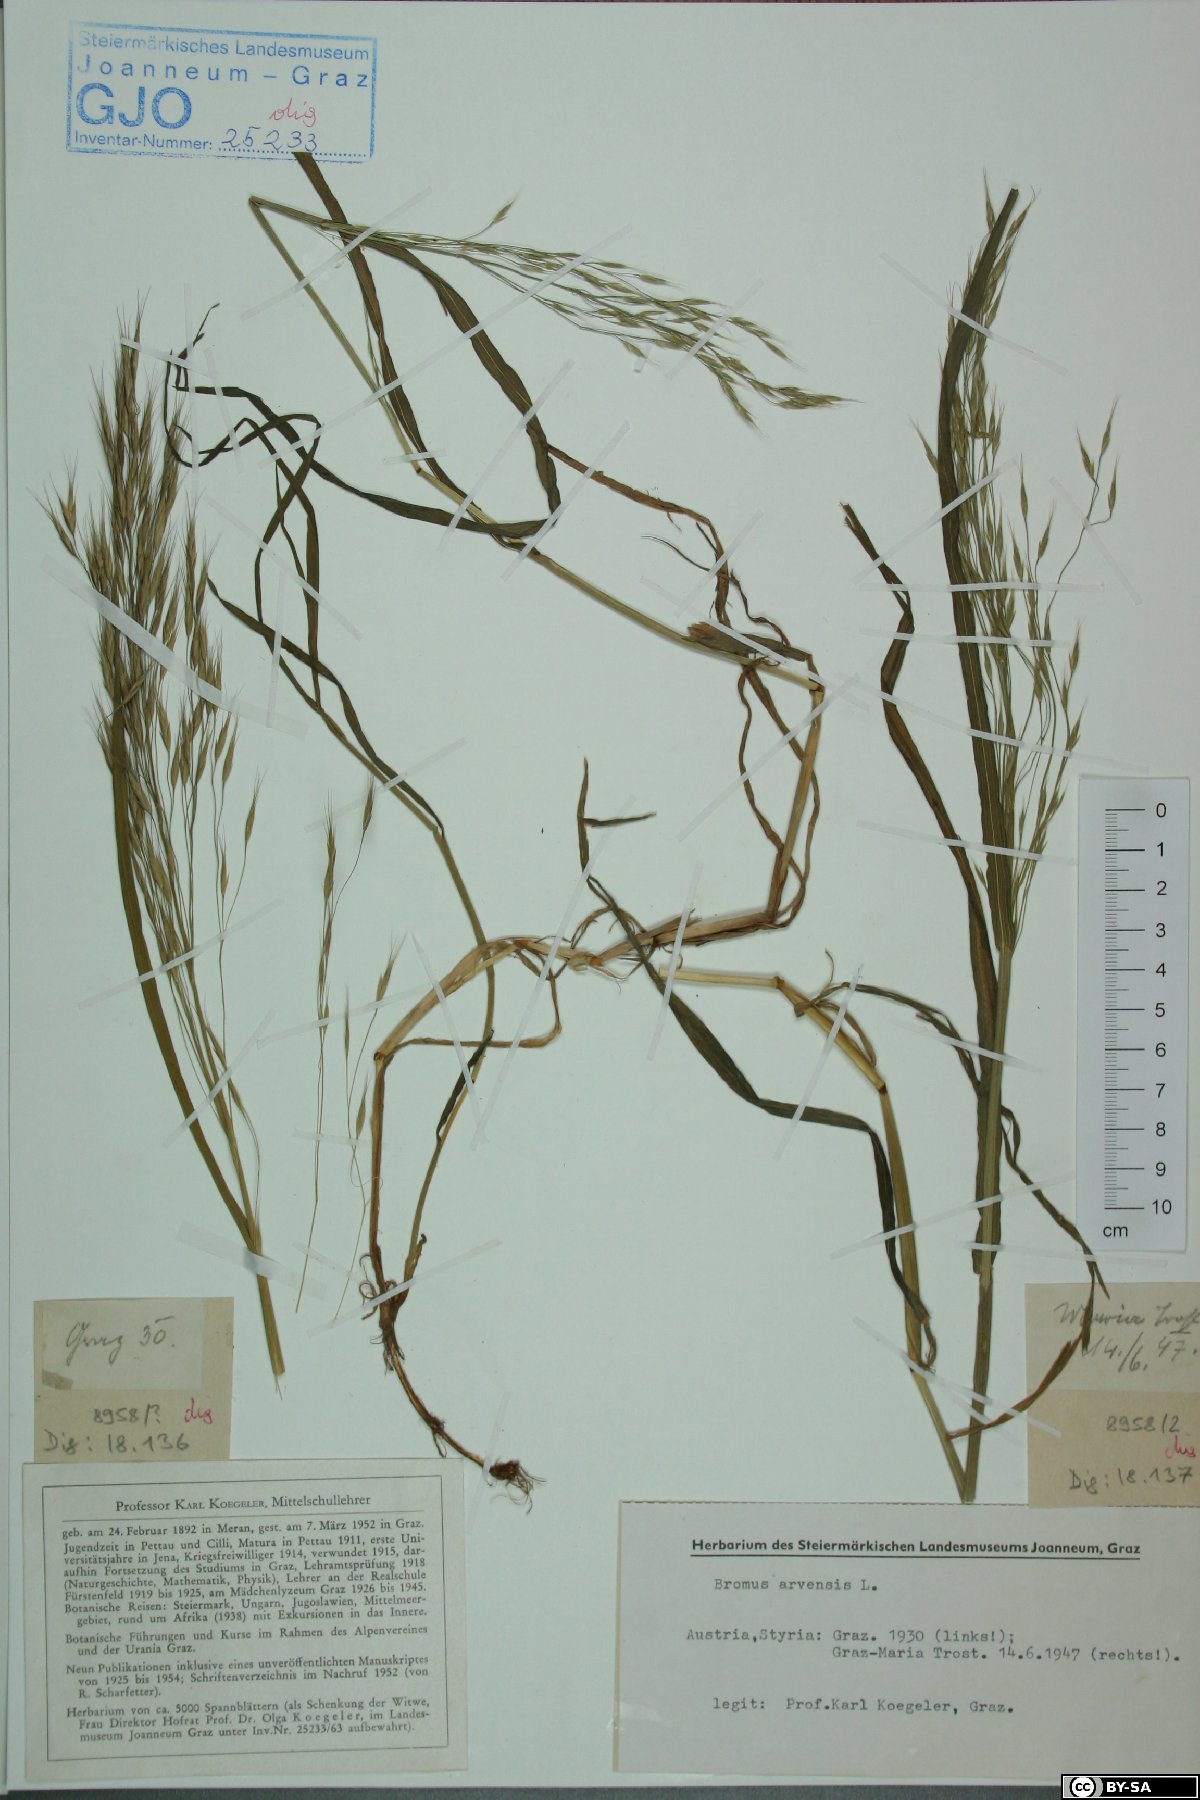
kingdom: Plantae
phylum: Tracheophyta
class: Liliopsida
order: Poales
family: Poaceae
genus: Bromus
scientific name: Bromus arvensis
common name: Field brome
